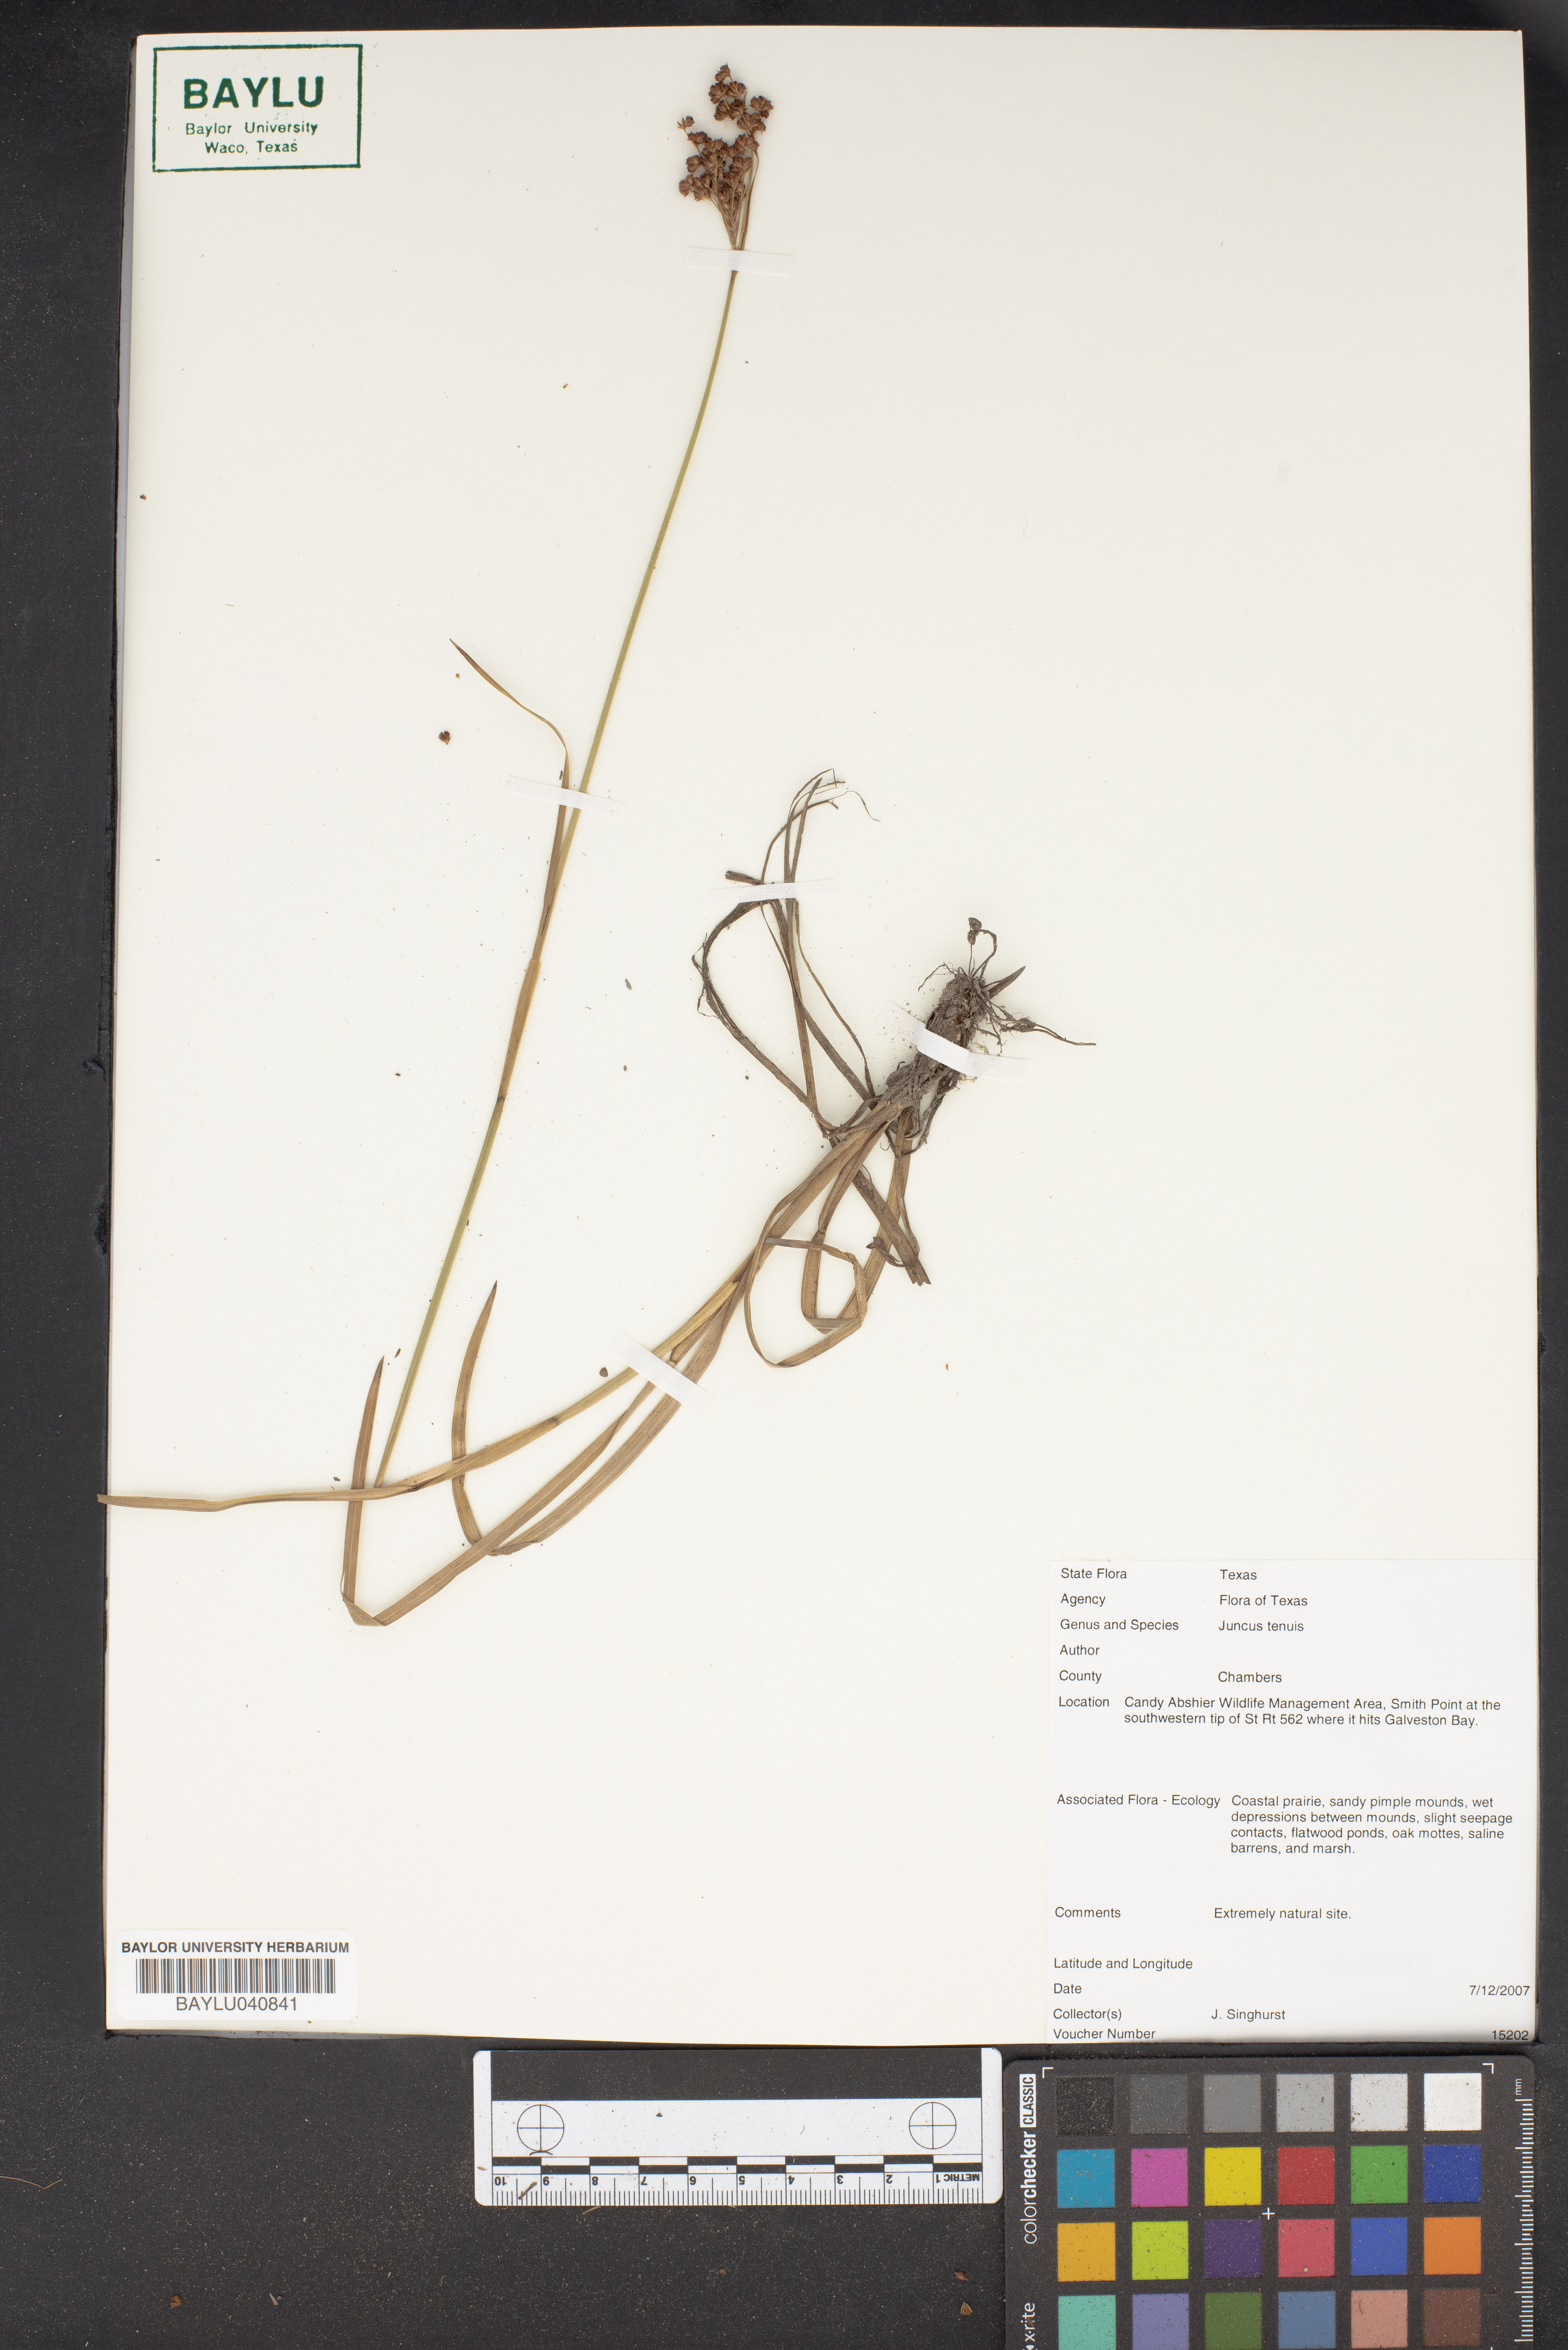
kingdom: Plantae
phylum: Tracheophyta
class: Liliopsida
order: Poales
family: Juncaceae
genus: Juncus
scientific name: Juncus tenuis
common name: Slender rush
